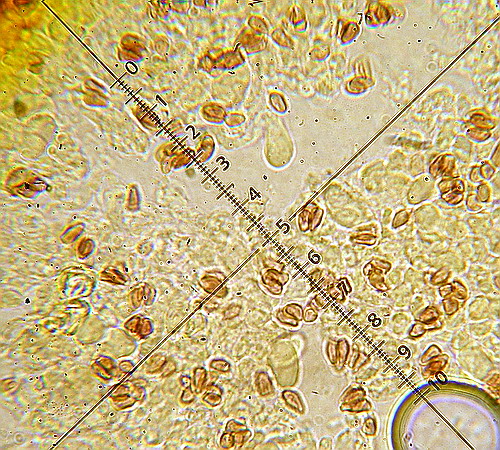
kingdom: Fungi
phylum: Basidiomycota
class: Agaricomycetes
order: Agaricales
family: Agaricaceae
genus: Lepiota
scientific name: Lepiota cristata
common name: stinkende parasolhat
